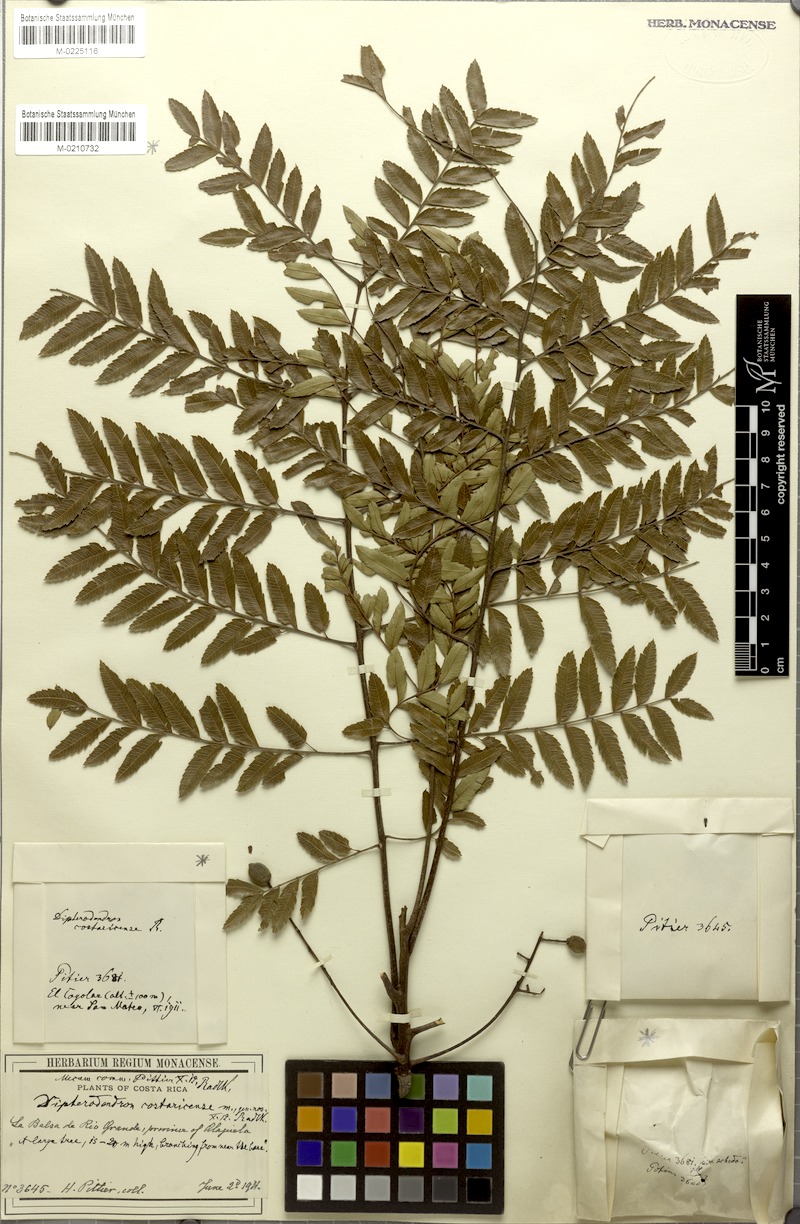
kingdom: Plantae
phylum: Tracheophyta
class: Magnoliopsida
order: Sapindales
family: Sapindaceae
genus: Dilodendron
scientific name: Dilodendron costaricense
